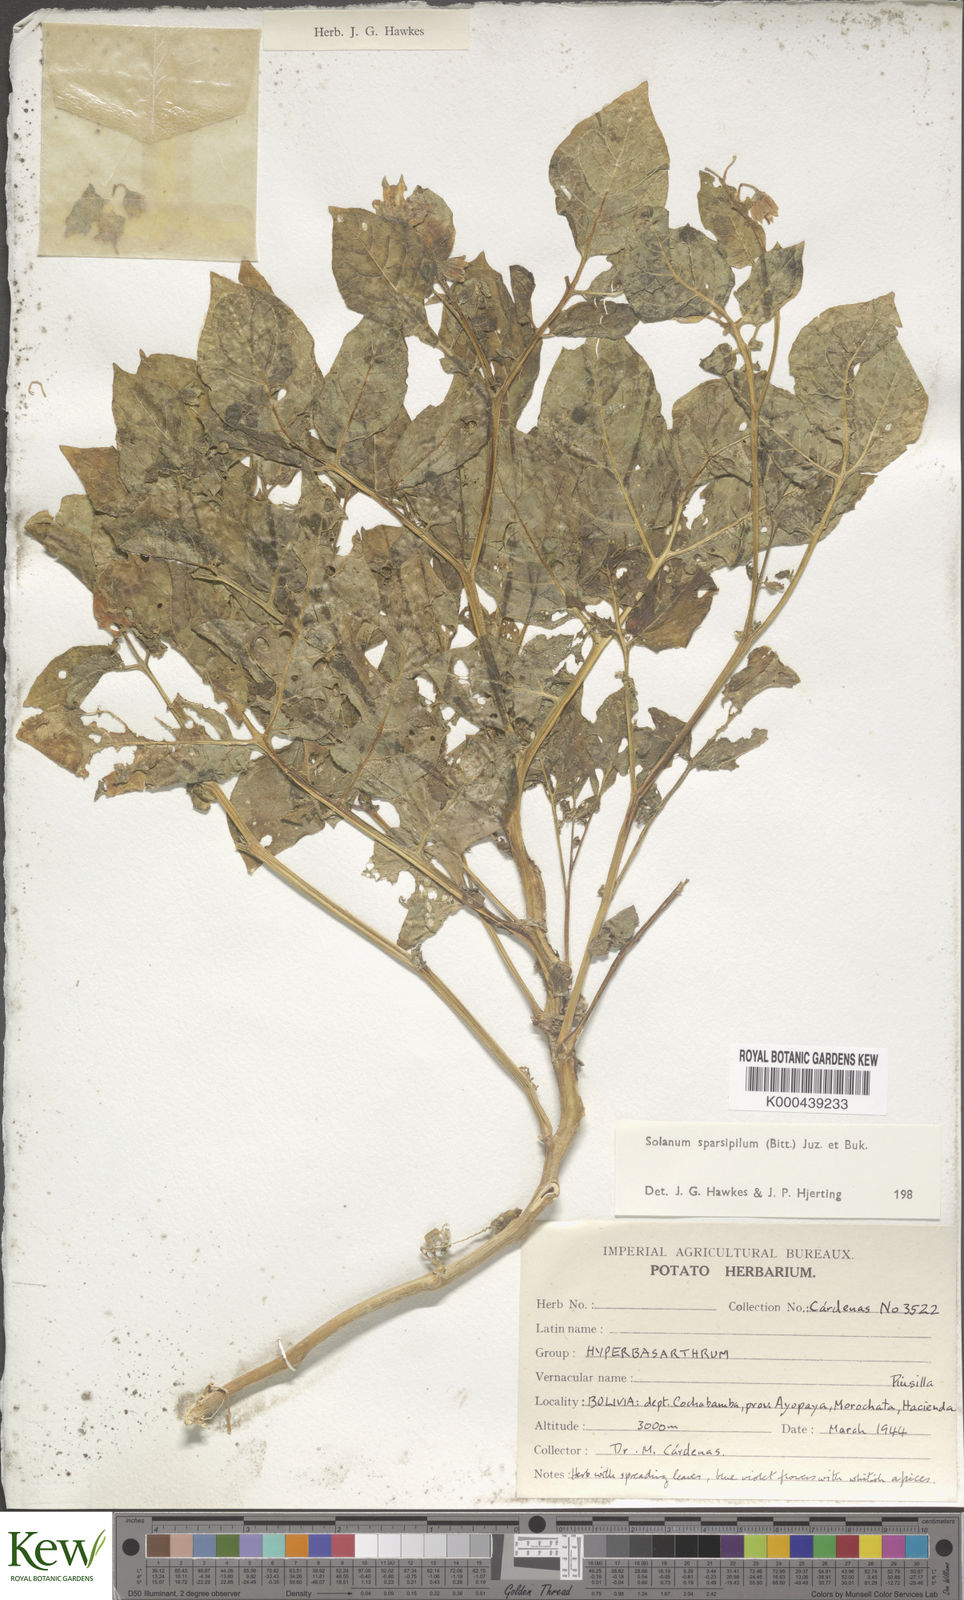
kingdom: Plantae
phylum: Tracheophyta
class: Magnoliopsida
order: Solanales
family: Solanaceae
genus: Solanum
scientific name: Solanum brevicaule
